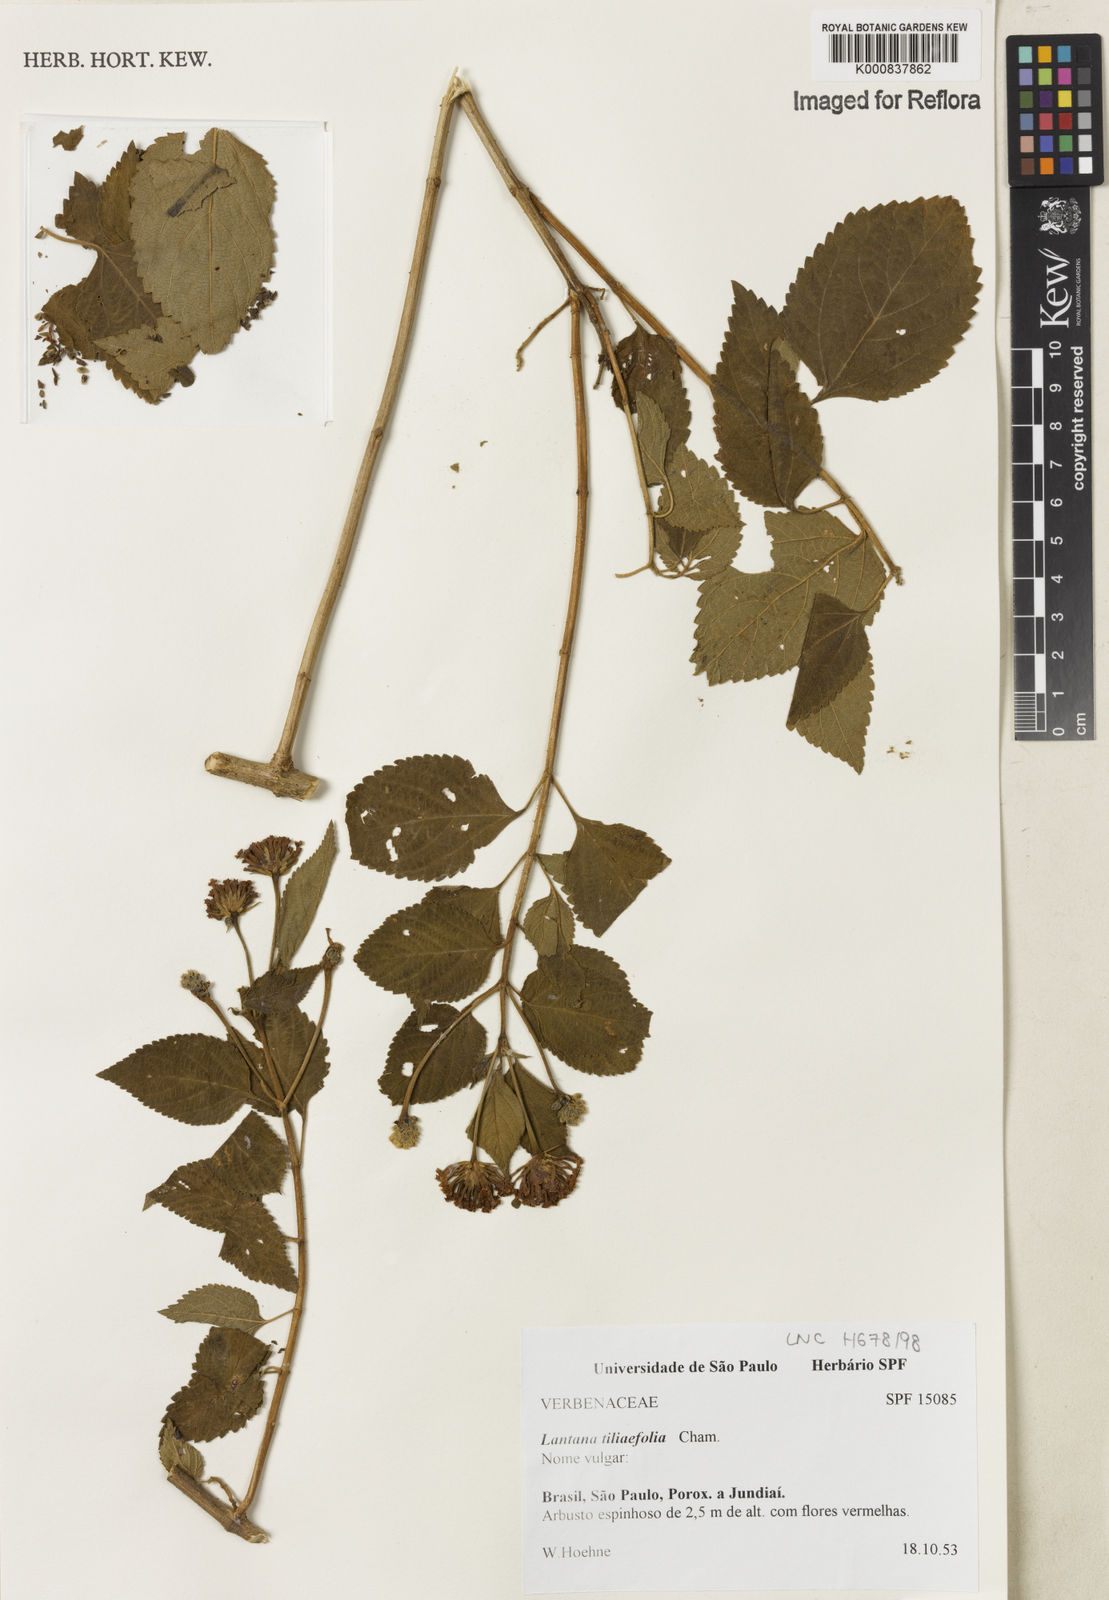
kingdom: Plantae
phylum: Tracheophyta
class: Magnoliopsida
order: Lamiales
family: Verbenaceae
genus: Lantana
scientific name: Lantana
